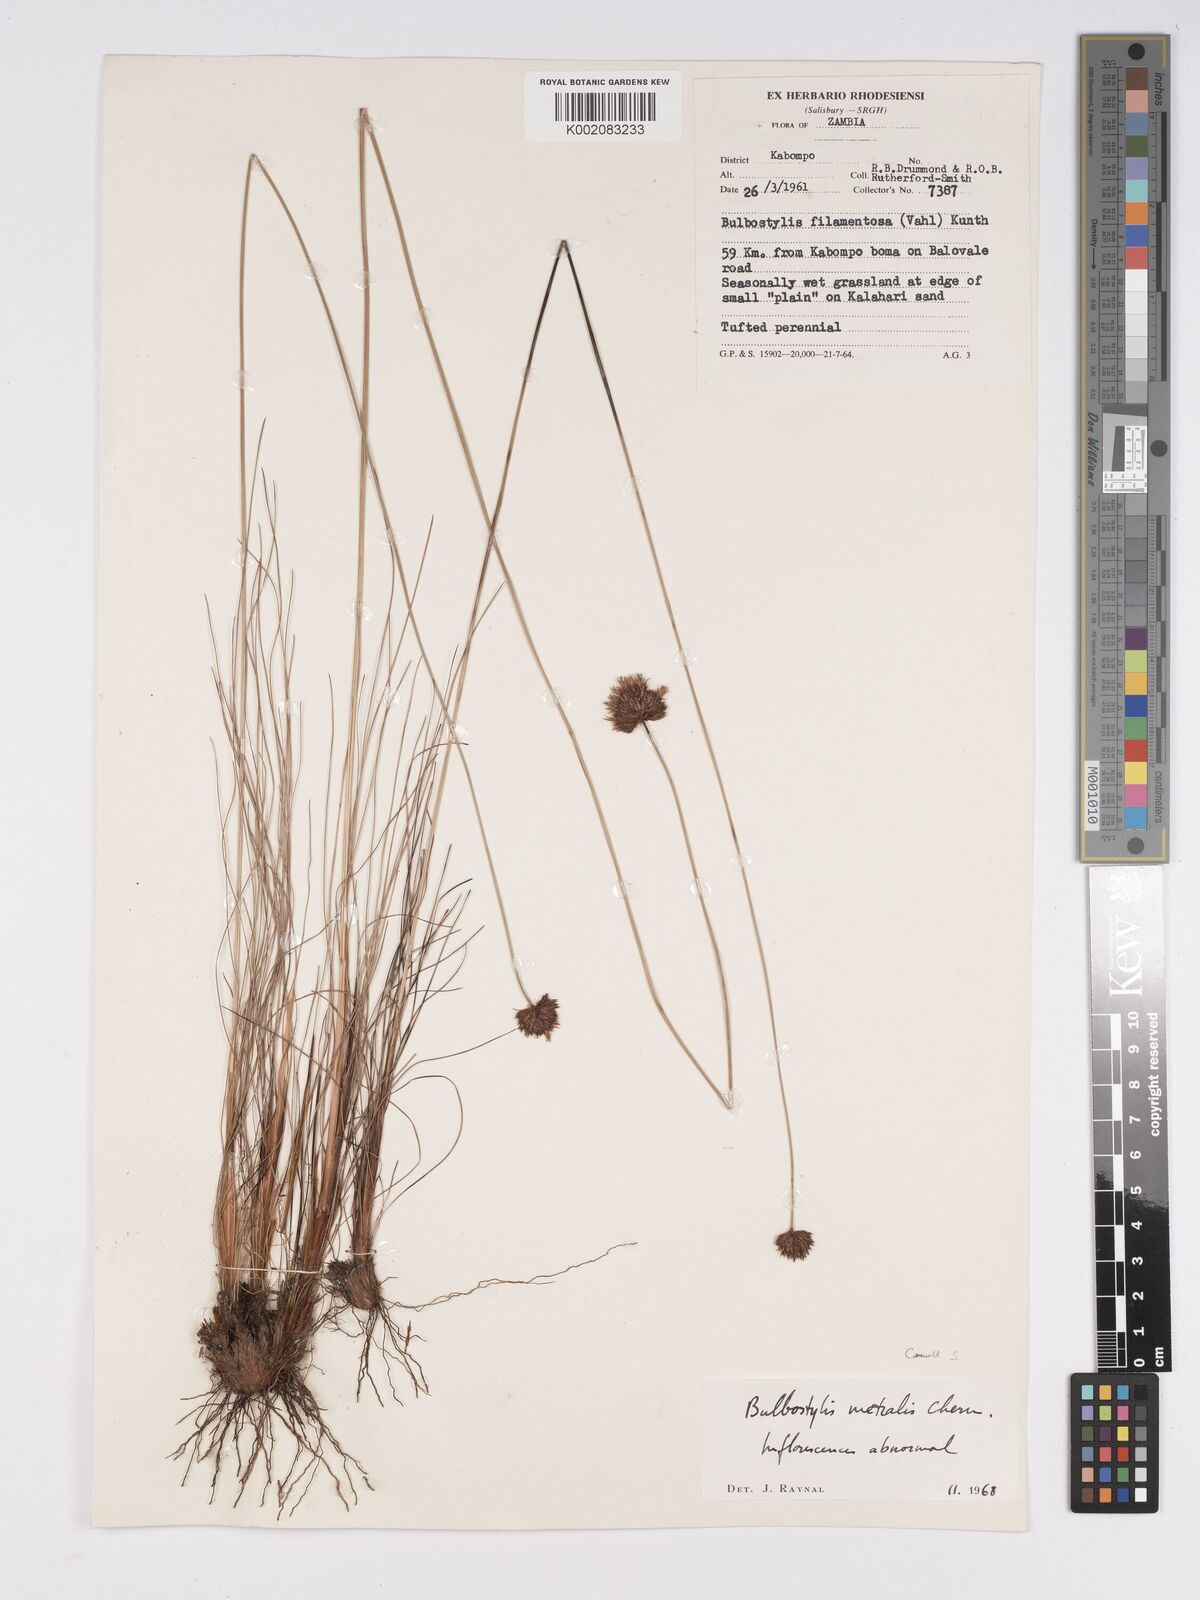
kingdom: Plantae
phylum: Tracheophyta
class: Liliopsida
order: Poales
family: Cyperaceae
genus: Bulbostylis
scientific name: Bulbostylis filamentosa
